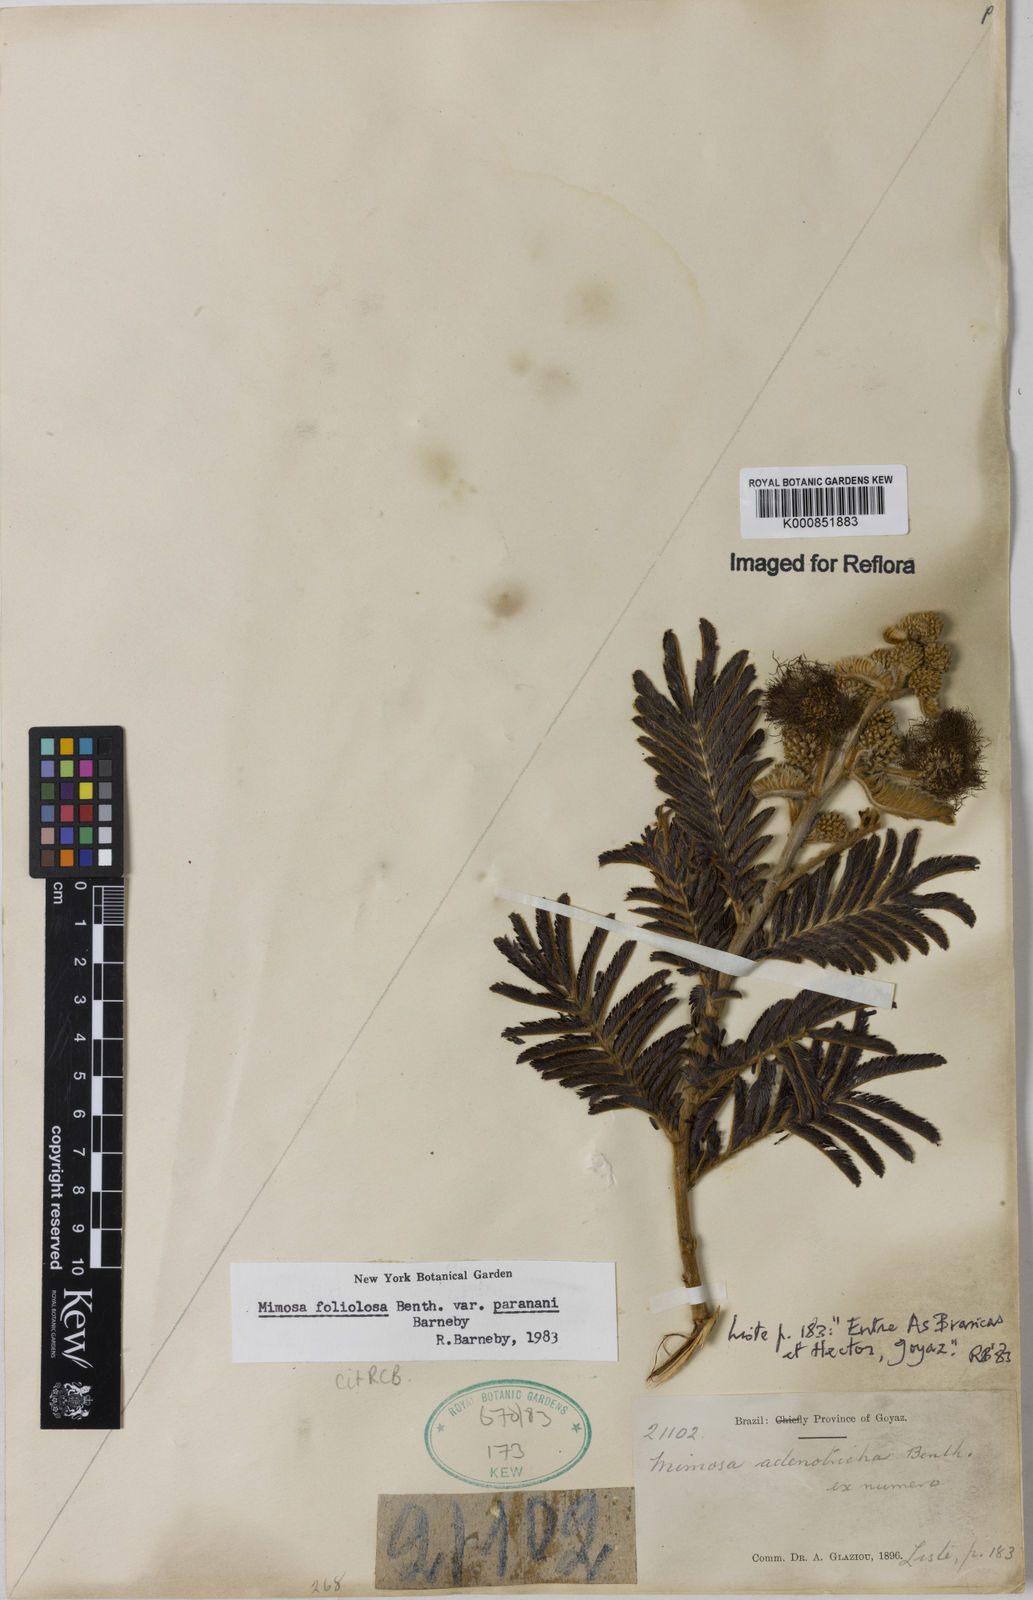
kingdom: Plantae
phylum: Tracheophyta
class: Magnoliopsida
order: Fabales
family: Fabaceae
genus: Mimosa
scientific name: Mimosa foliolosa
